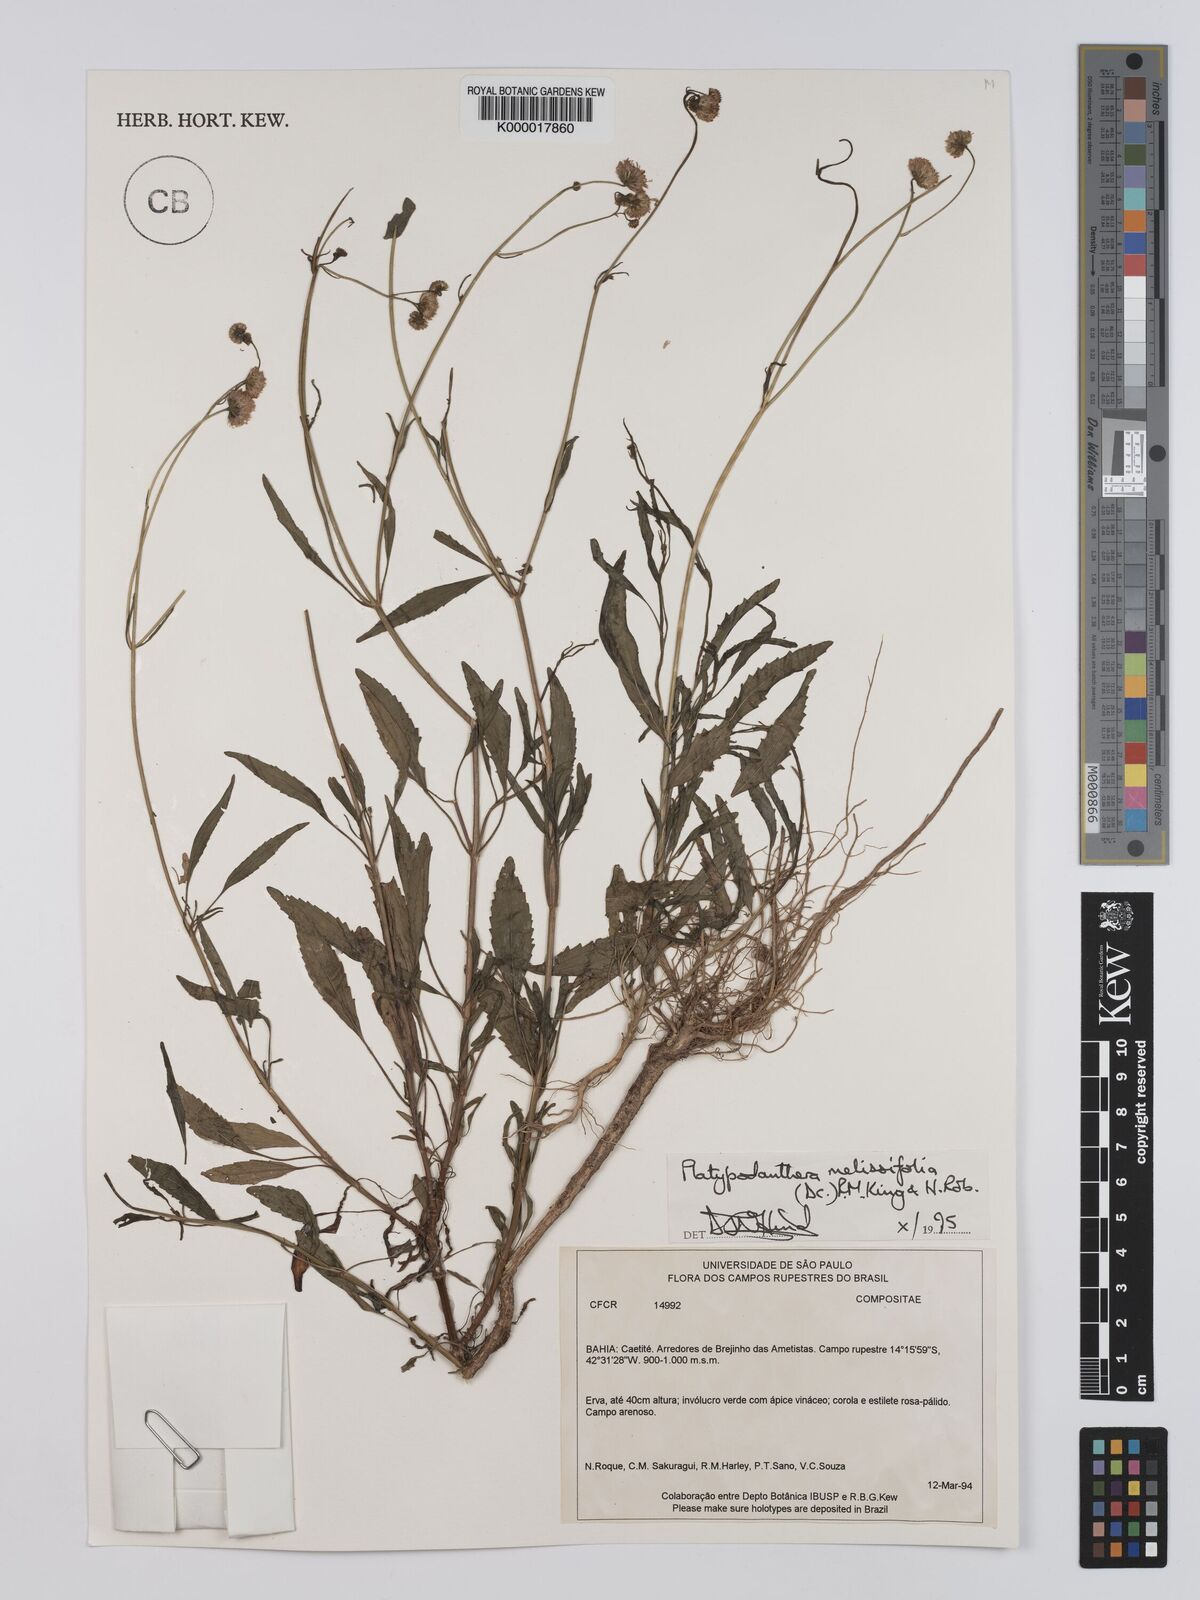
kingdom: Plantae
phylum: Tracheophyta
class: Magnoliopsida
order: Asterales
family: Asteraceae
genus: Platypodanthera
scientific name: Platypodanthera melissifolia
